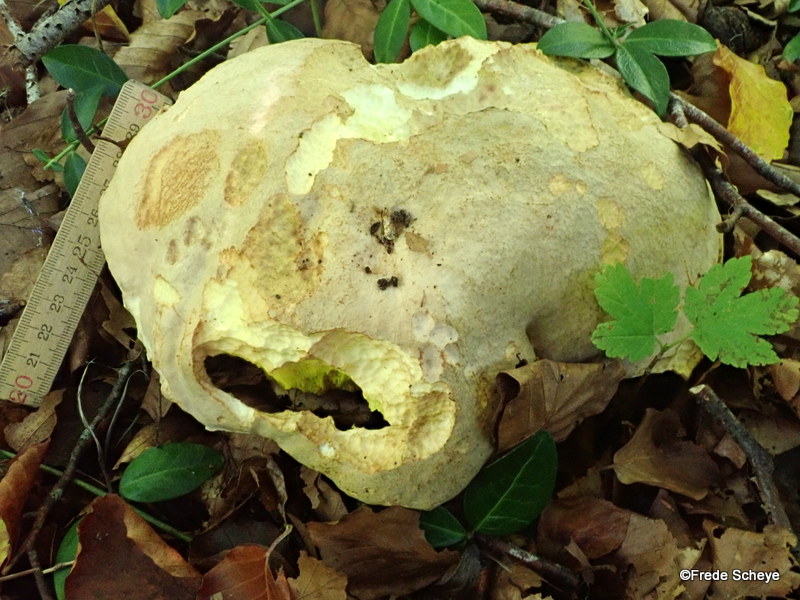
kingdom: Fungi
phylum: Basidiomycota
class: Agaricomycetes
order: Boletales
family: Boletaceae
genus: Hemileccinum
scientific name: Hemileccinum impolitum
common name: bleg rørhat
